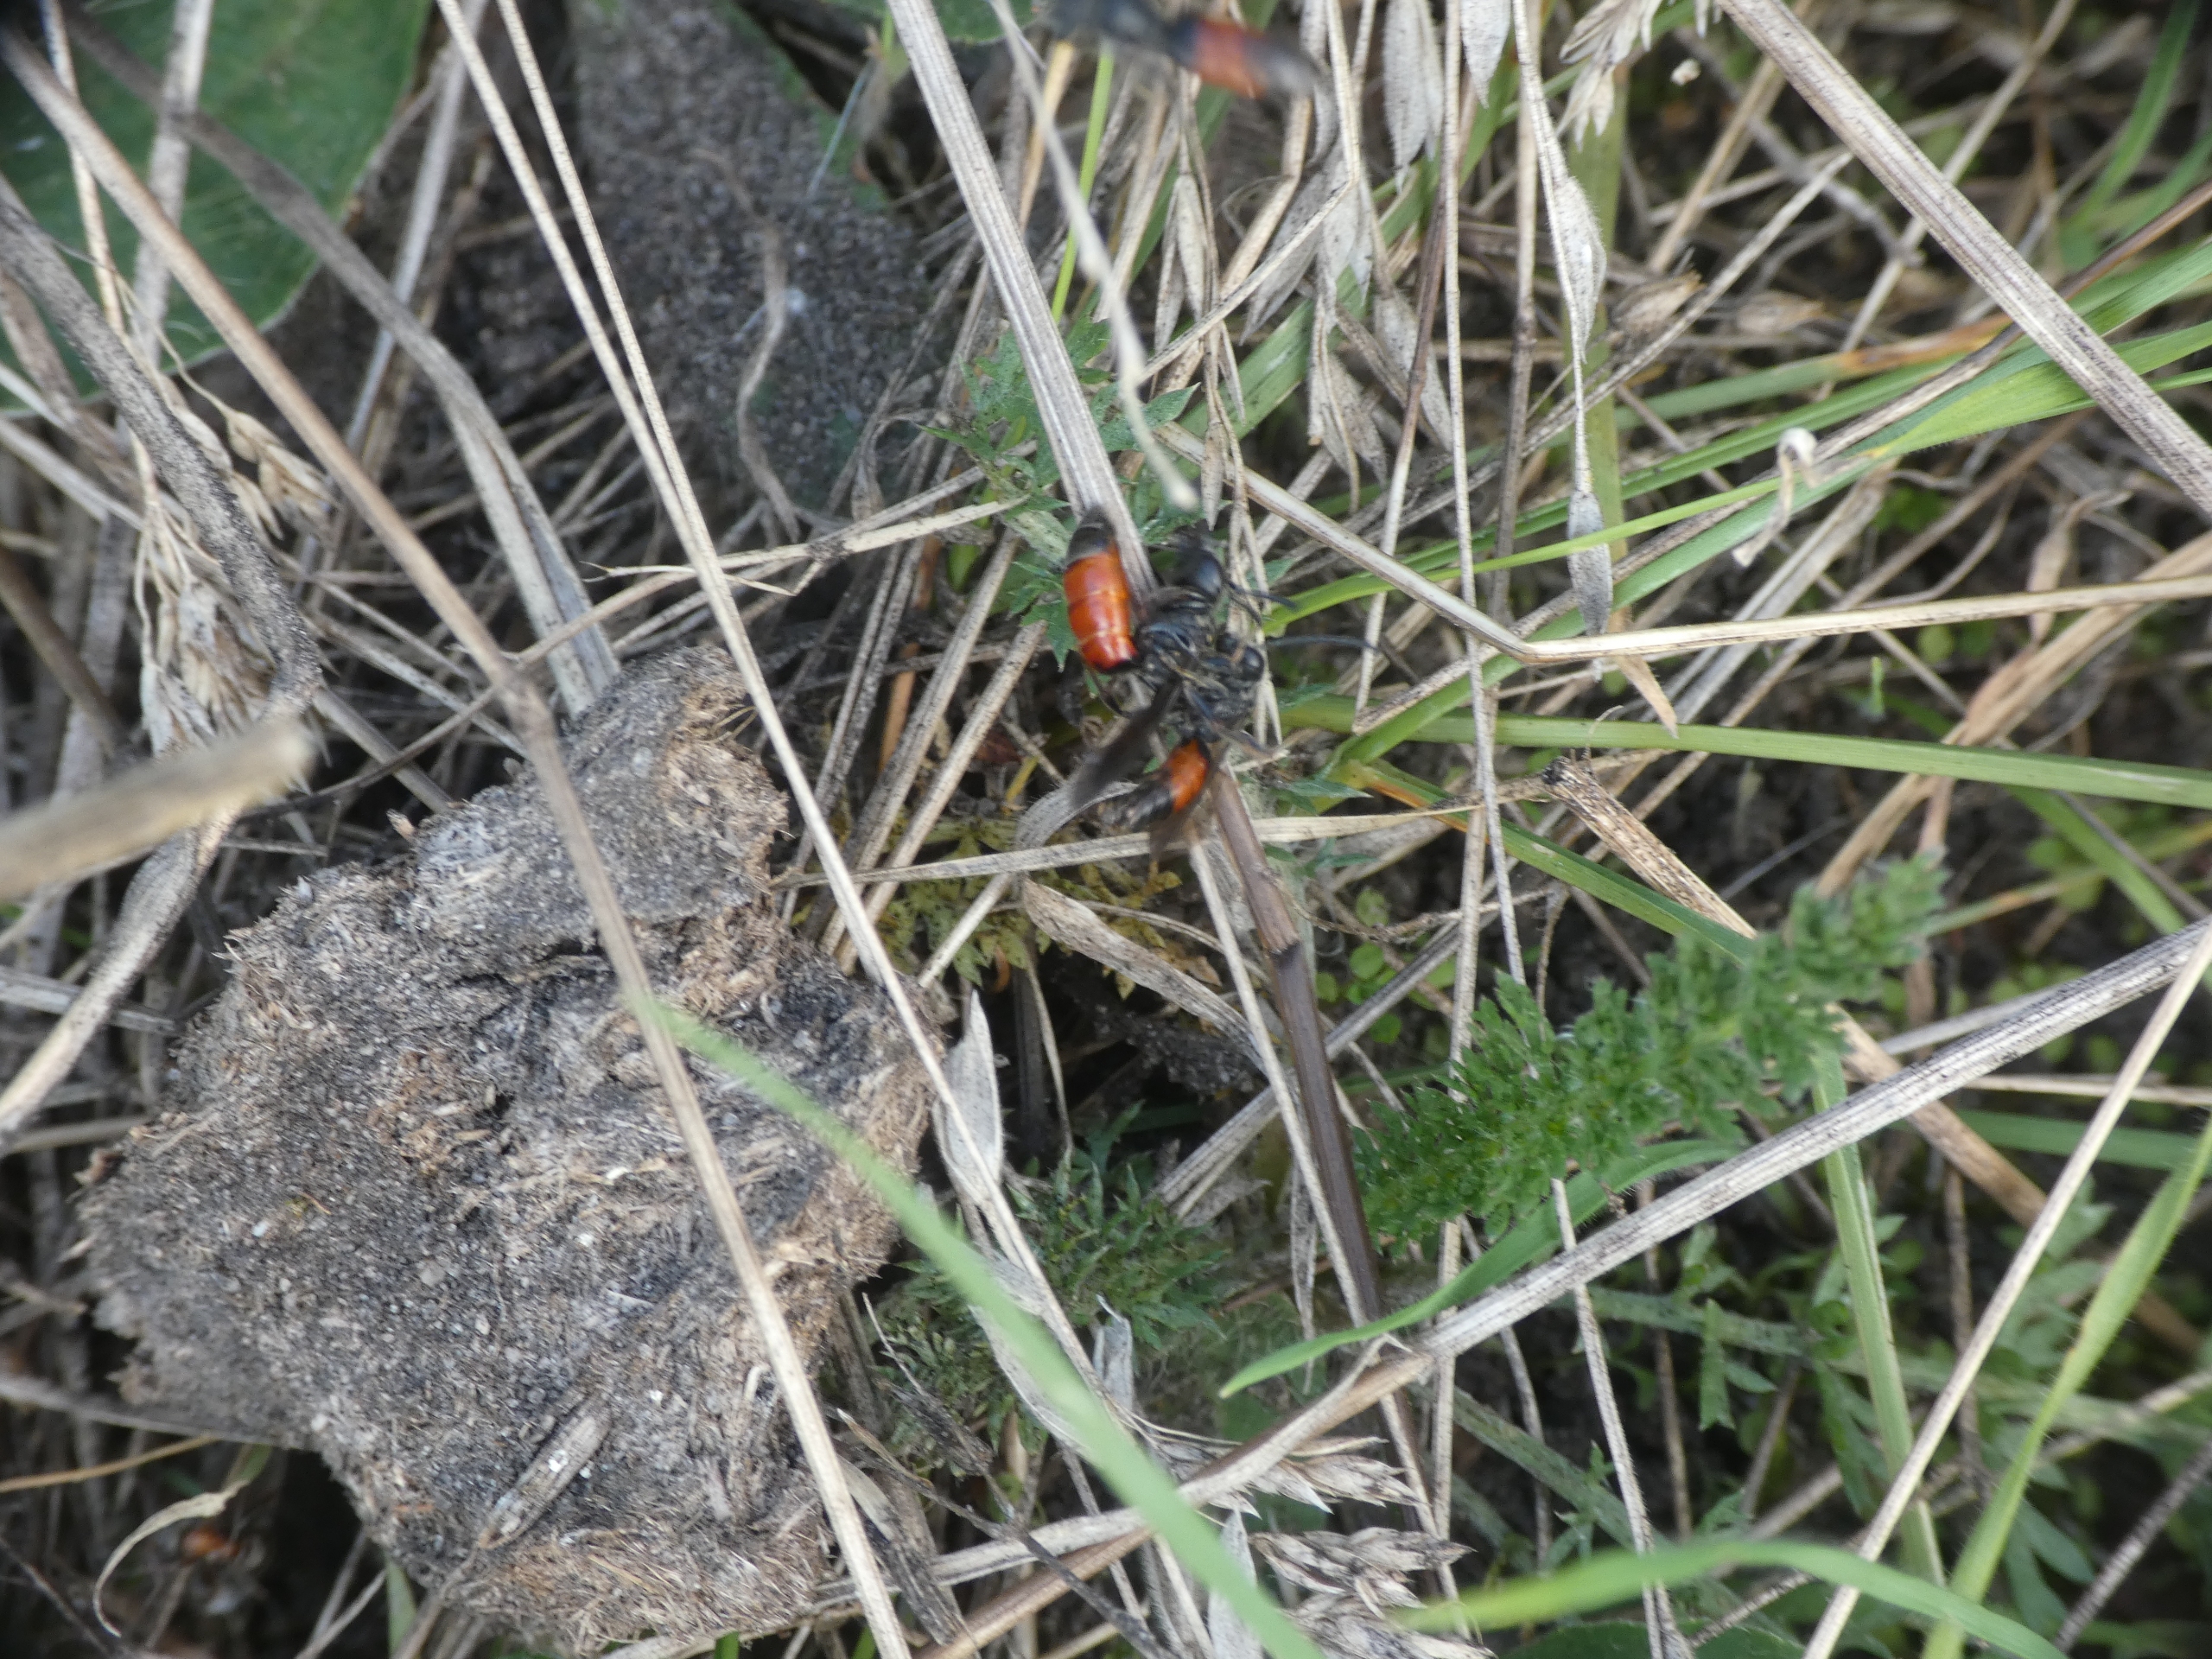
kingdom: Animalia
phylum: Arthropoda
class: Insecta
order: Hymenoptera
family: Halictidae
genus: Sphecodes
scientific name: Sphecodes
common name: Blodbier
